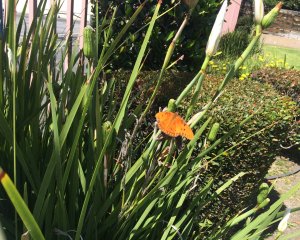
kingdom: Animalia
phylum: Arthropoda
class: Insecta
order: Lepidoptera
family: Nymphalidae
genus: Dione
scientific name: Dione vanillae
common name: Gulf Fritillary
